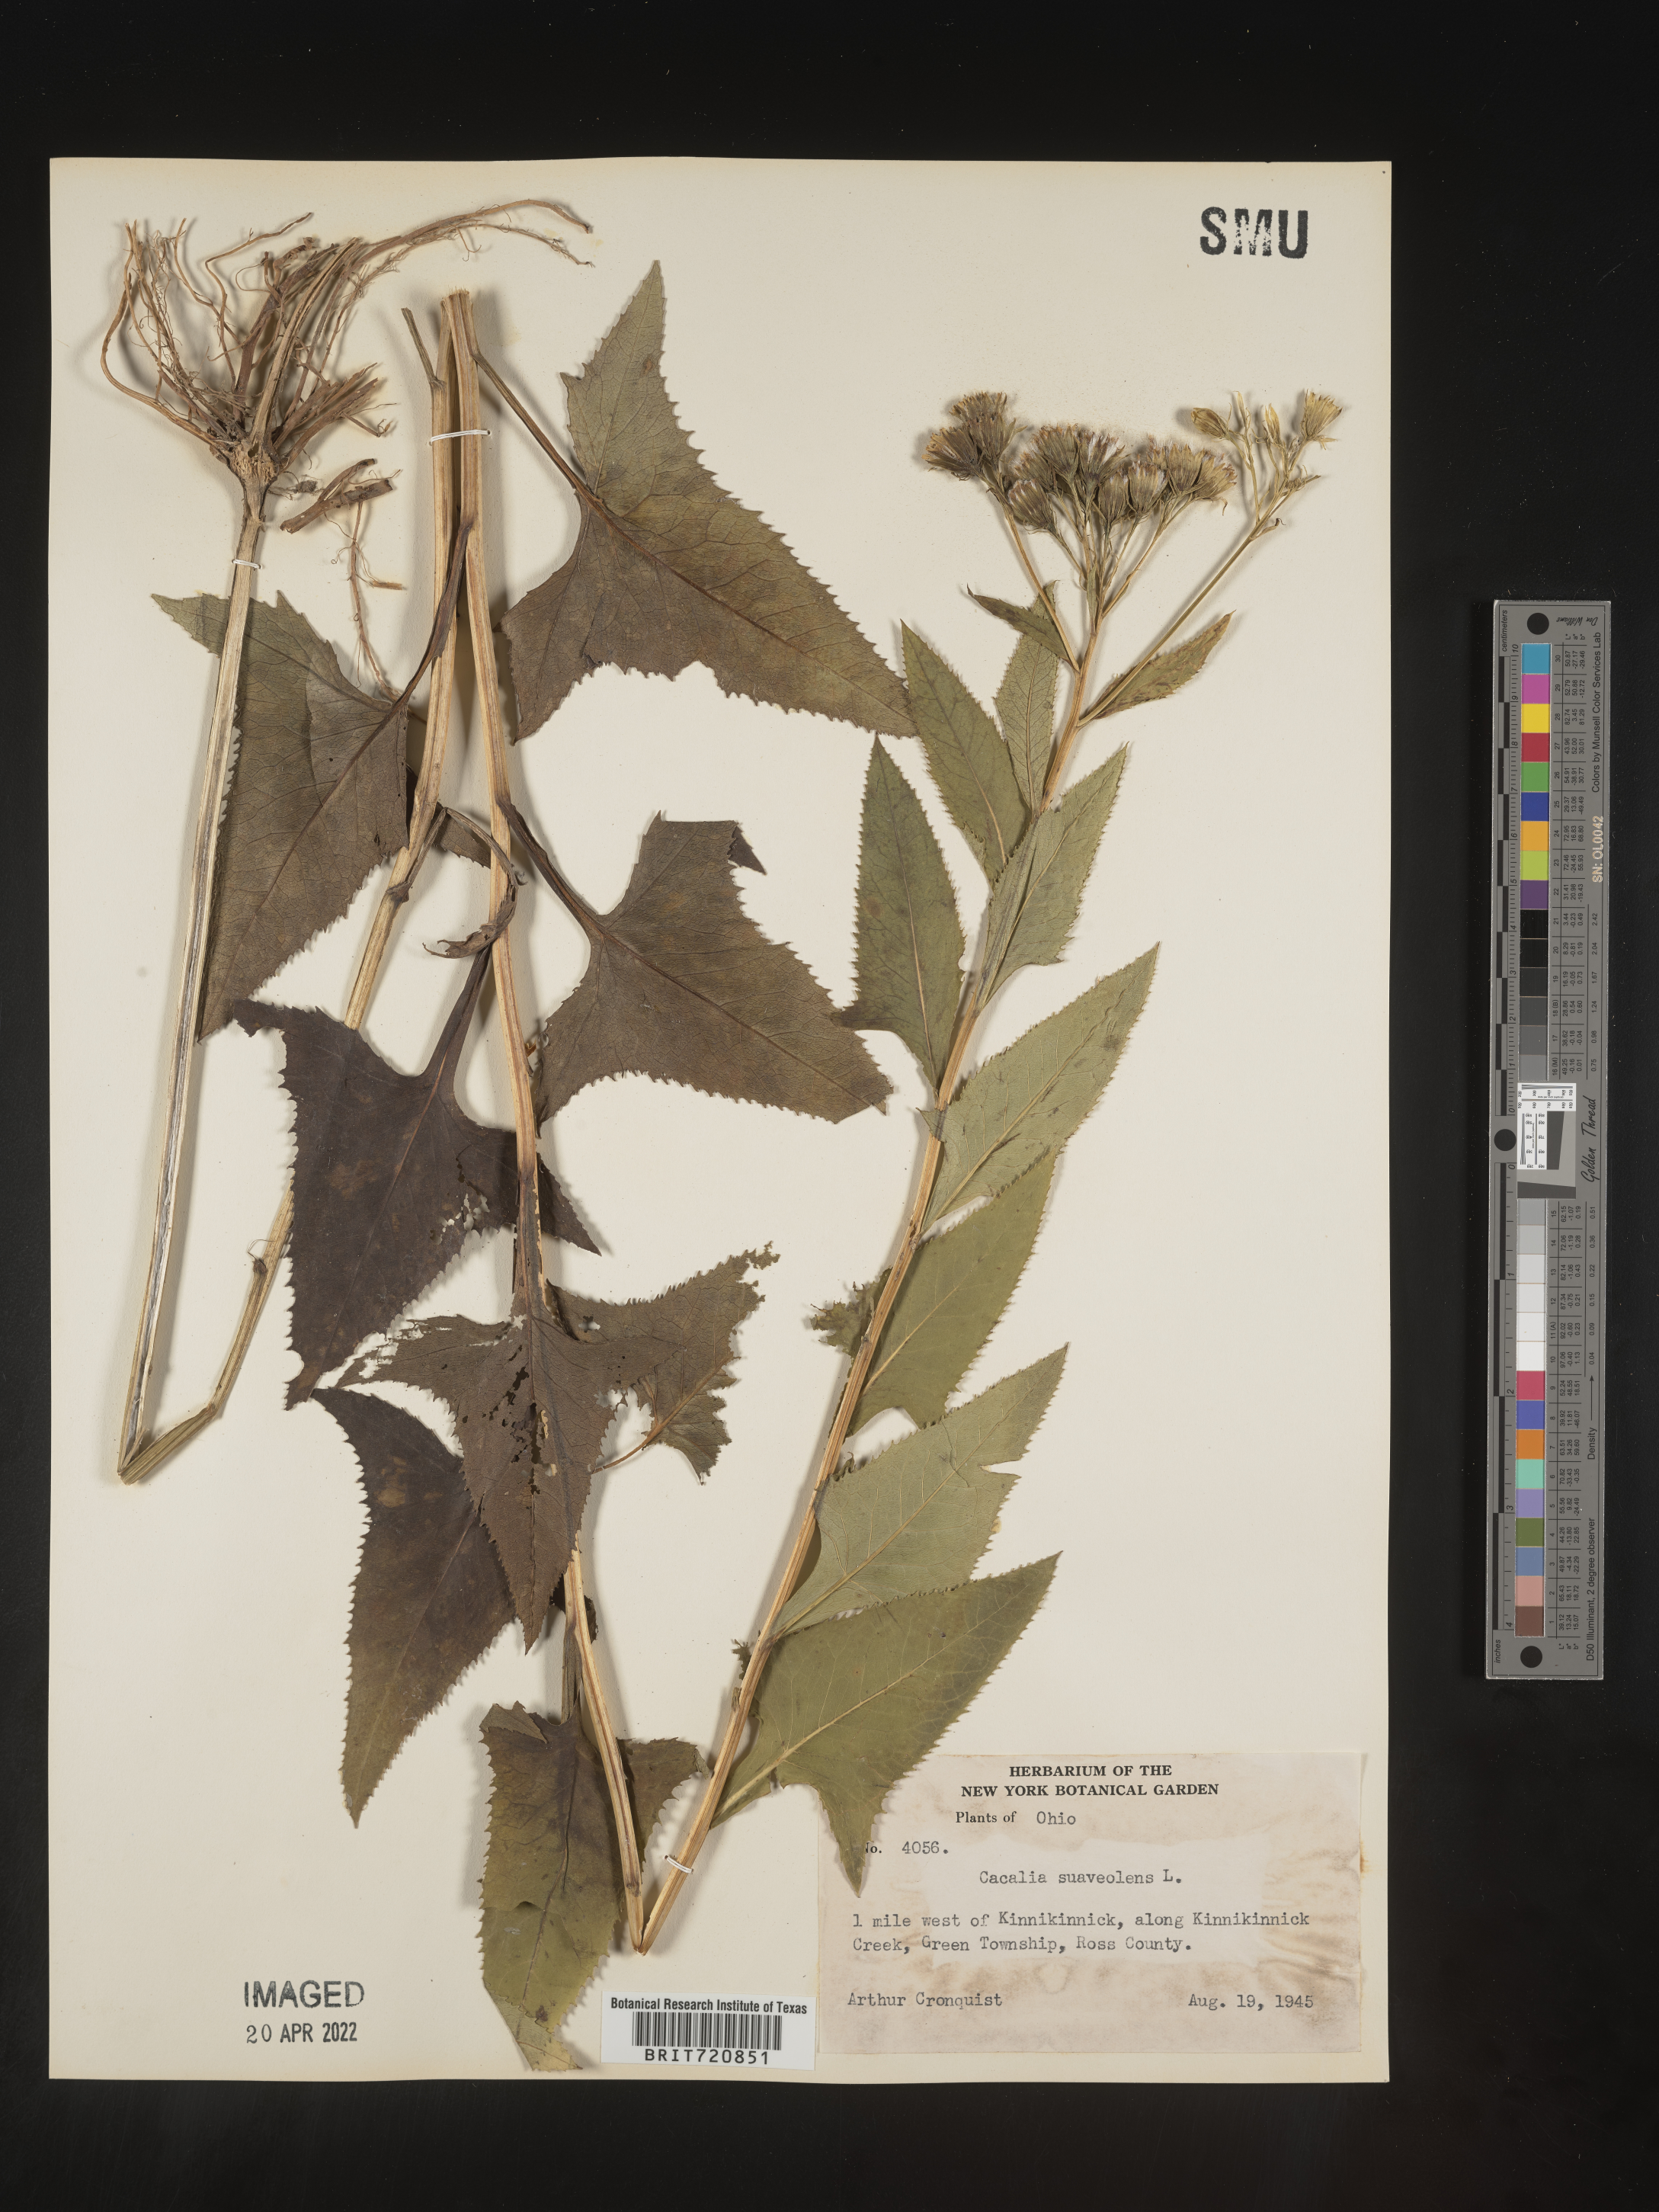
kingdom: Plantae
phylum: Tracheophyta
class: Magnoliopsida
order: Asterales
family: Asteraceae
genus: Hasteola
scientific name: Hasteola suaveolens
